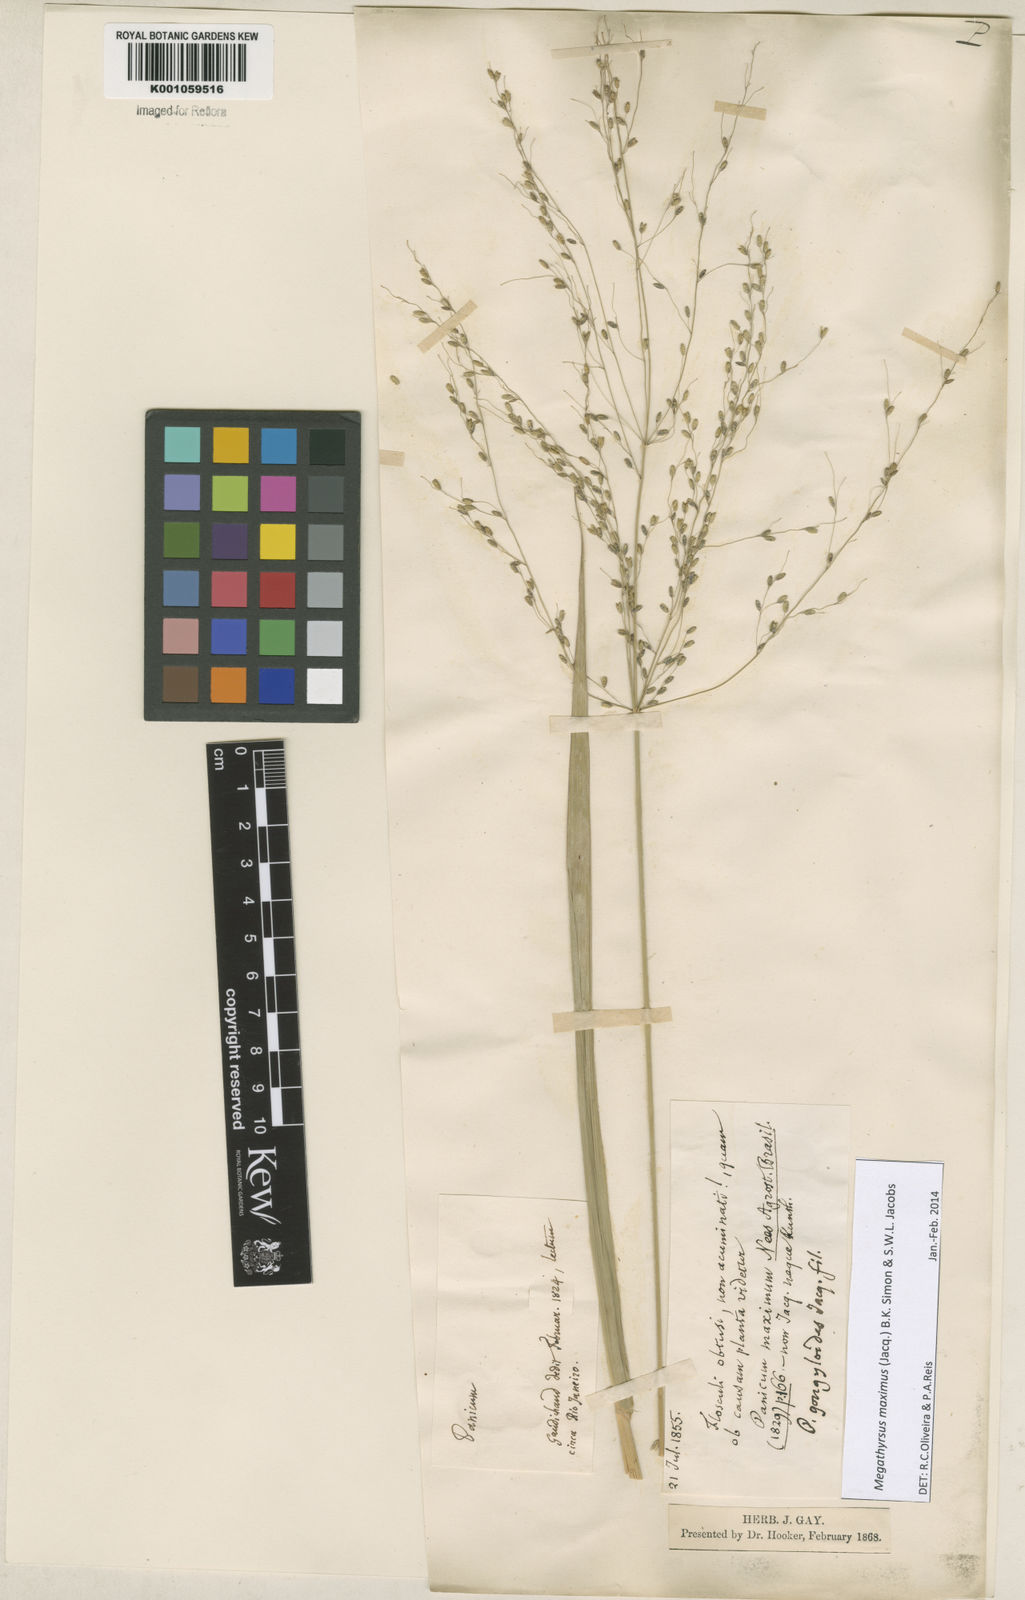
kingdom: Plantae
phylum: Tracheophyta
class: Liliopsida
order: Poales
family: Poaceae
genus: Megathyrsus
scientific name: Megathyrsus maximus
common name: Guineagrass
